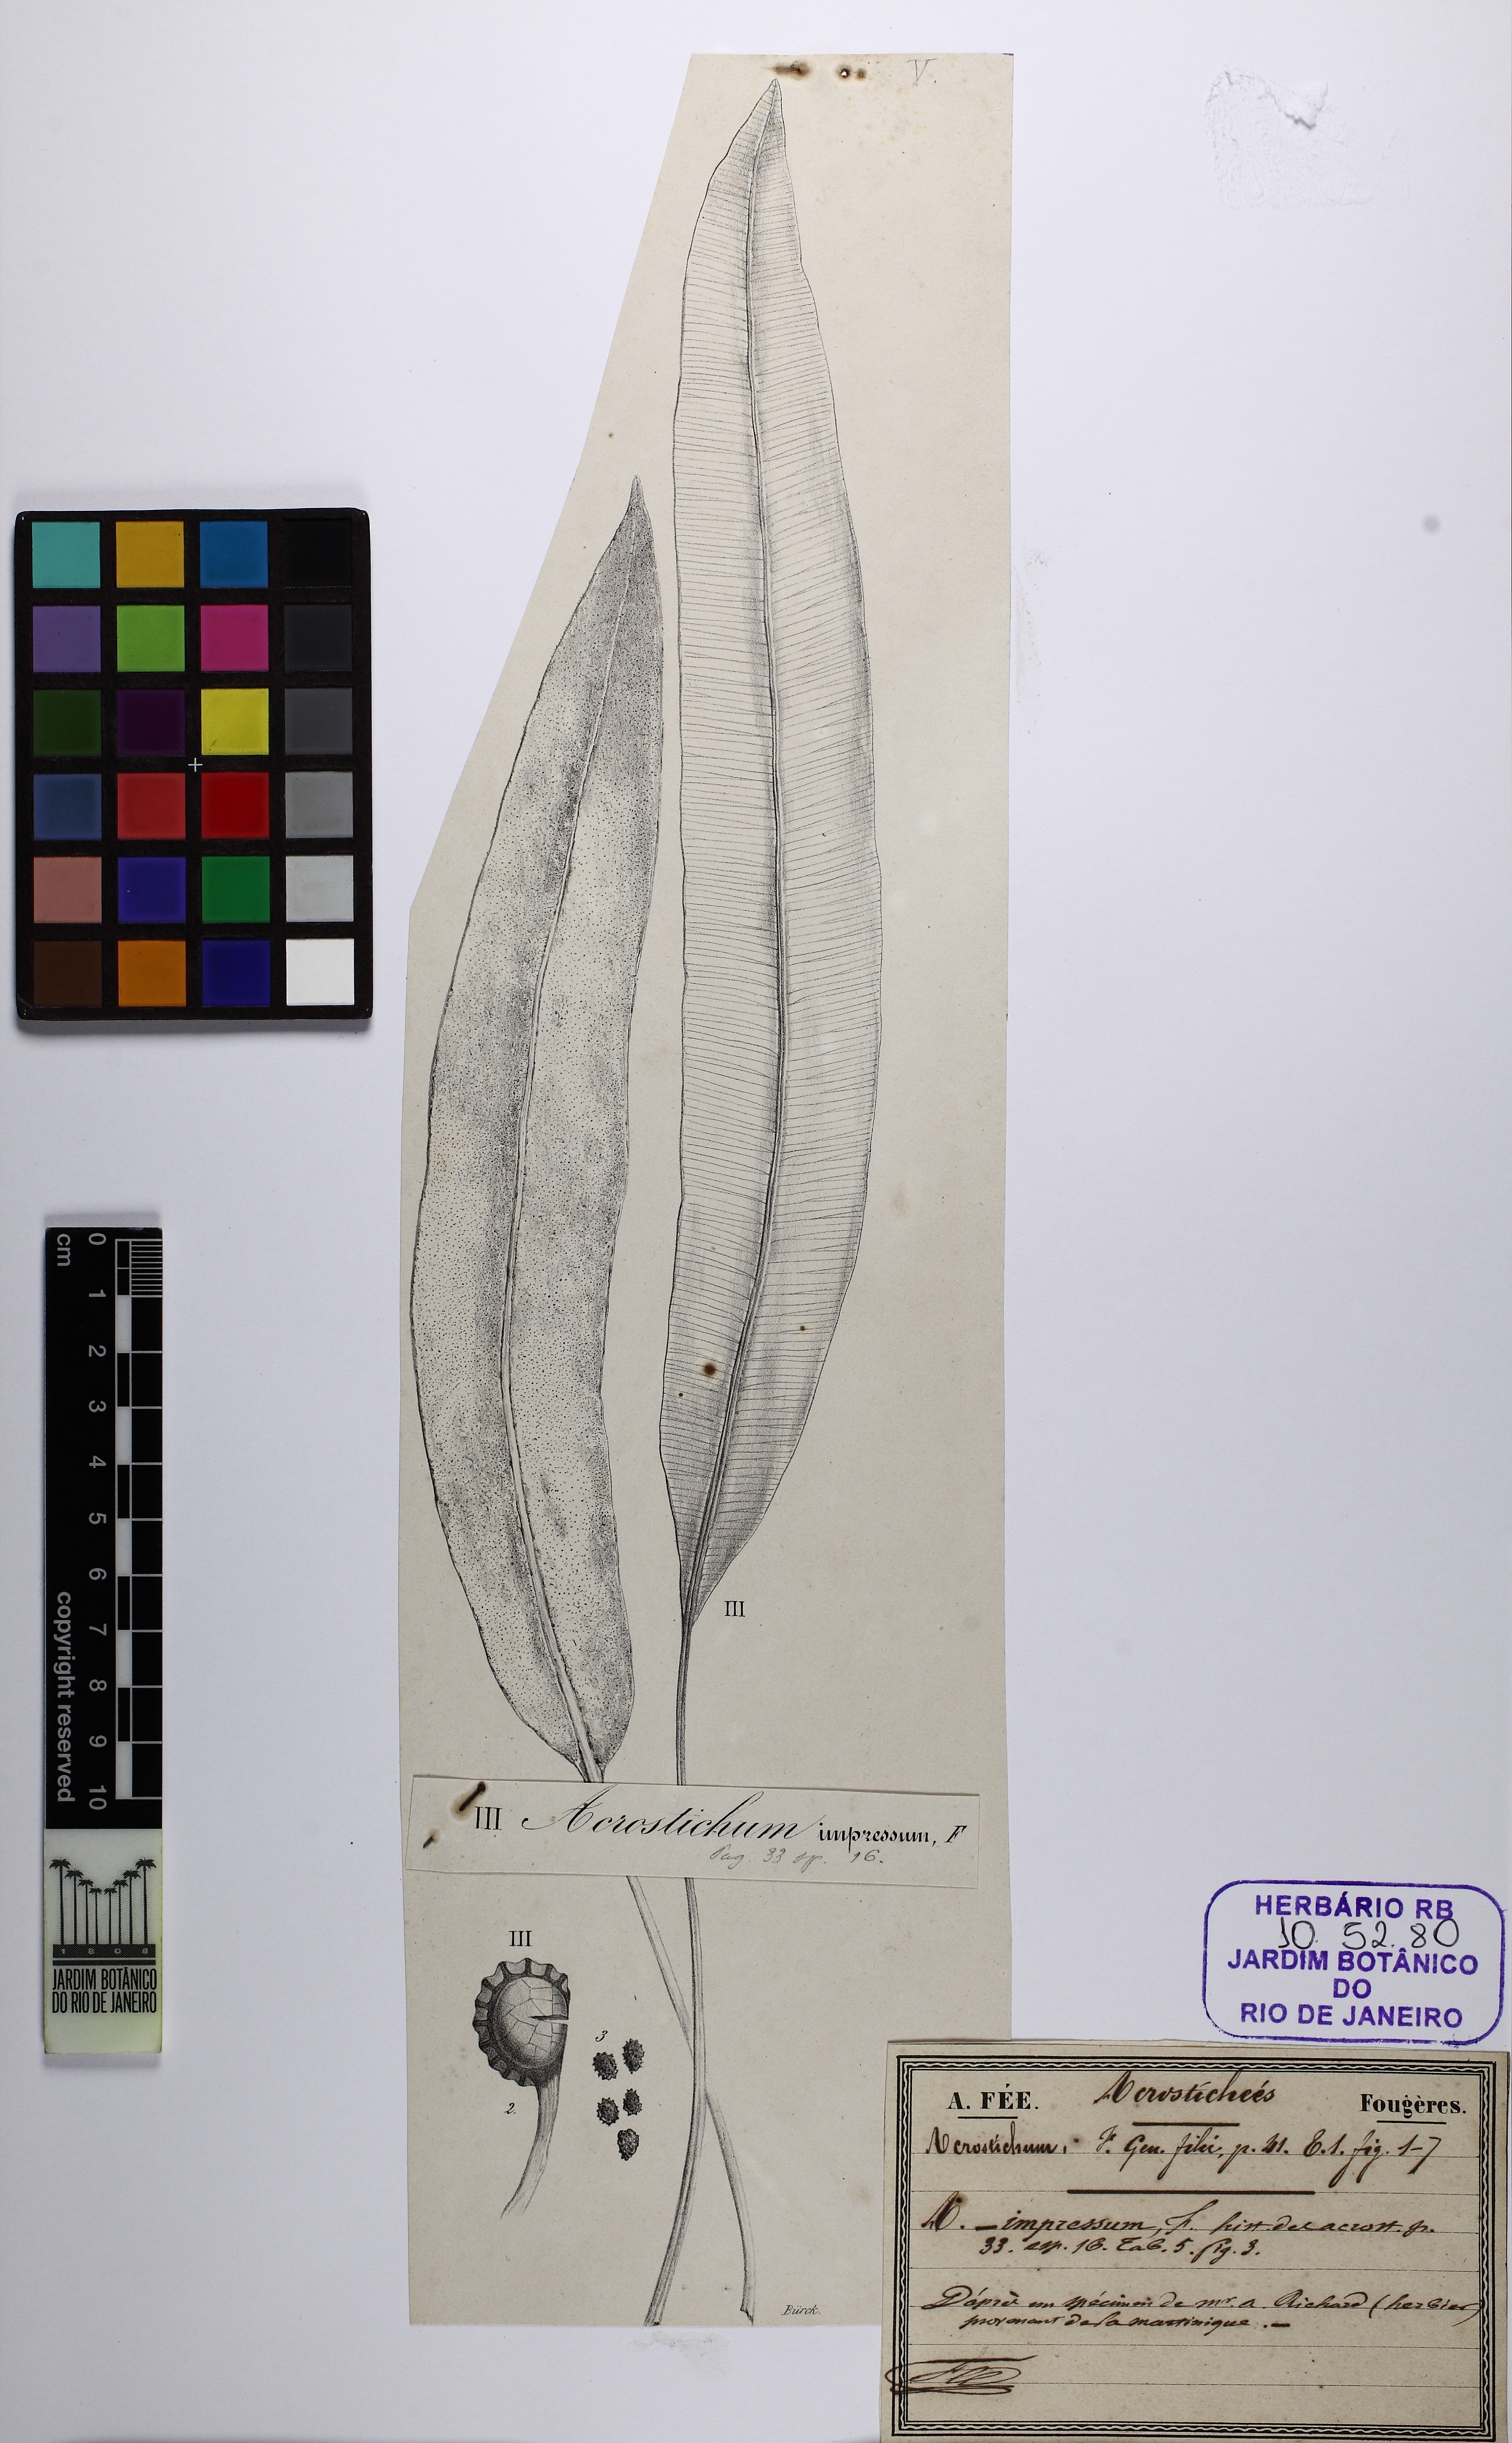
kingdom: Plantae
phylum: Tracheophyta
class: Polypodiopsida
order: Polypodiales
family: Dryopteridaceae
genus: Elaphoglossum
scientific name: Elaphoglossum latifolium
